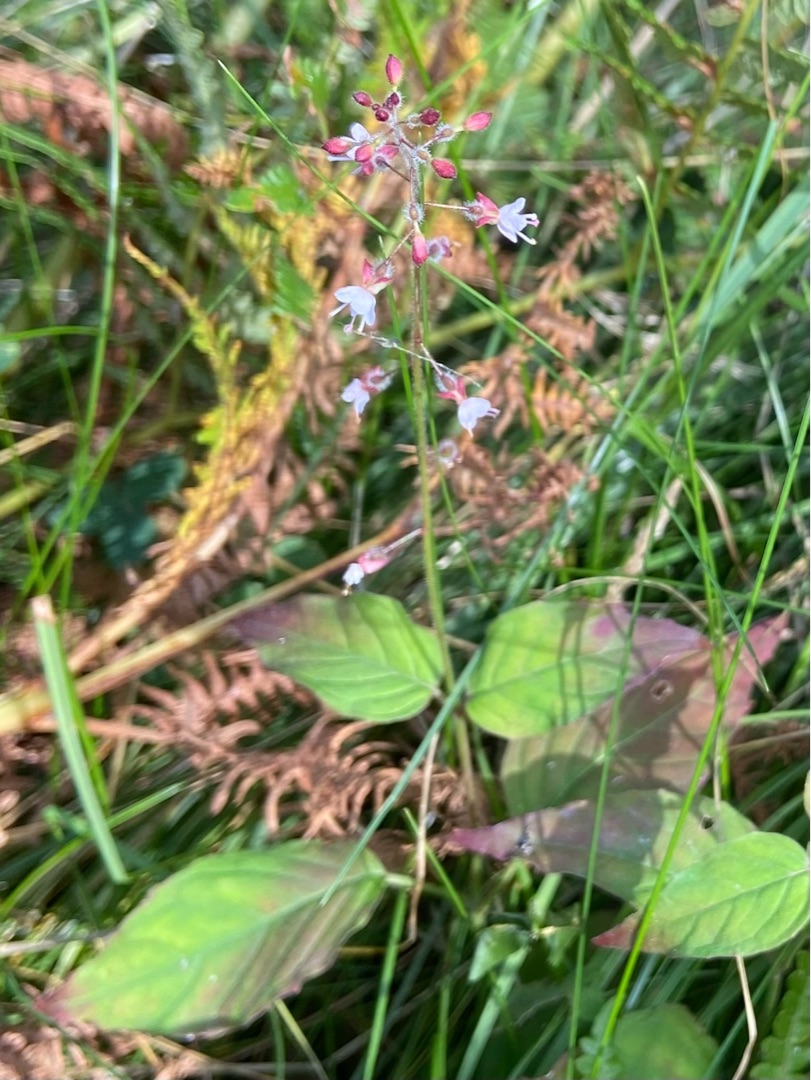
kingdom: Plantae
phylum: Tracheophyta
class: Magnoliopsida
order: Myrtales
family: Onagraceae
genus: Circaea
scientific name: Circaea lutetiana
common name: Dunet steffensurt
